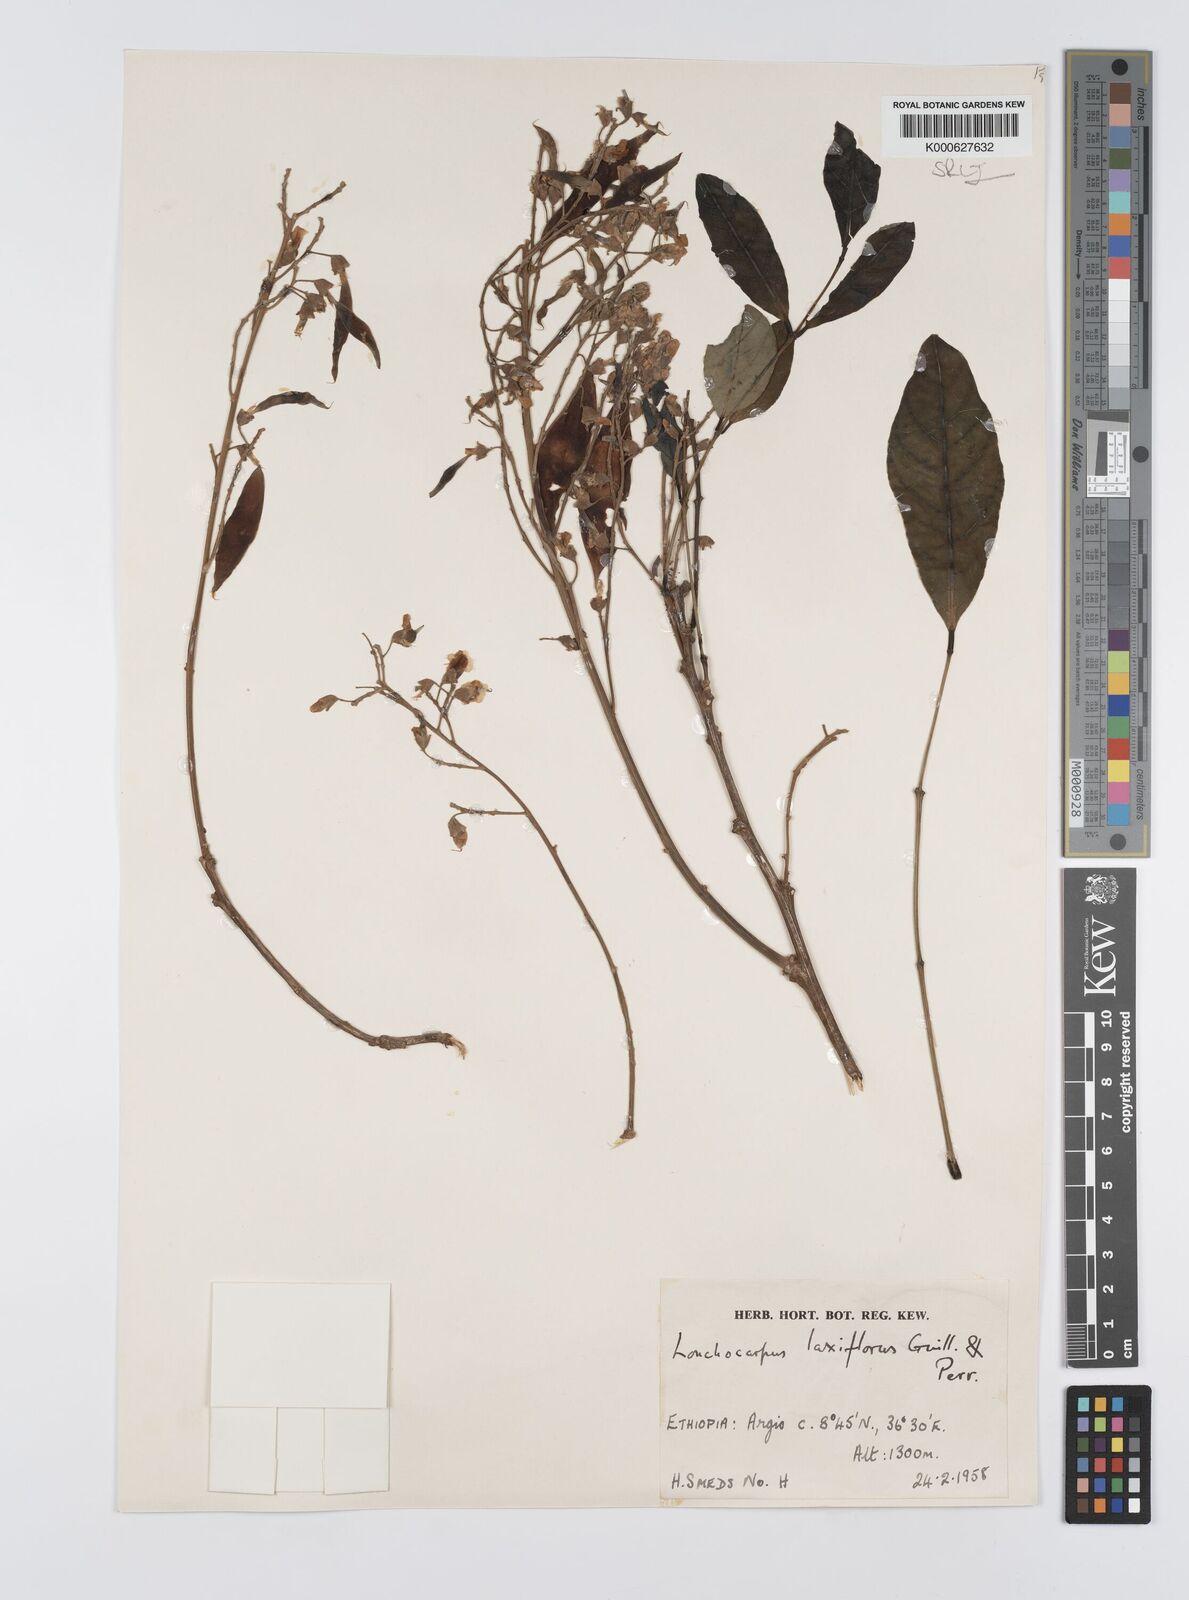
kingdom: Plantae
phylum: Tracheophyta
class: Magnoliopsida
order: Fabales
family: Fabaceae
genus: Philenoptera
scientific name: Philenoptera laxiflora
